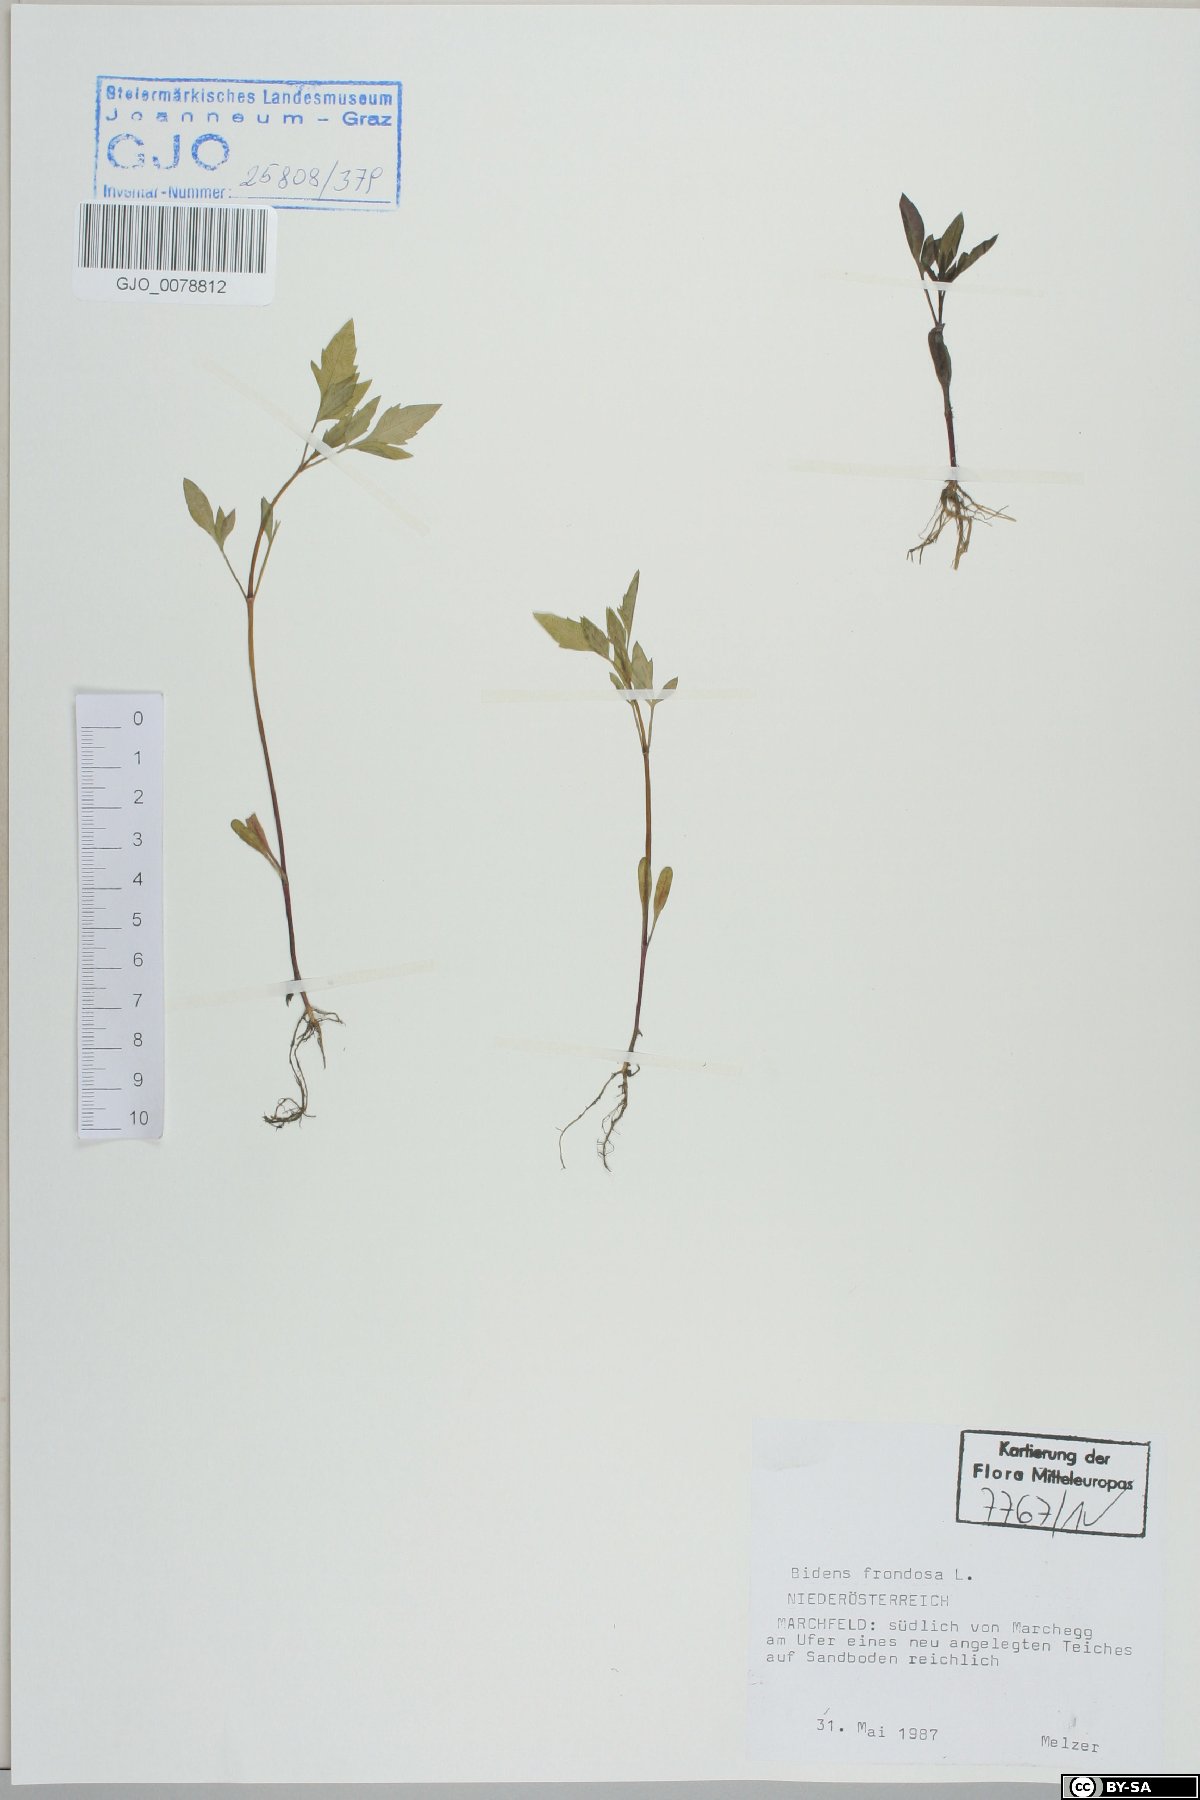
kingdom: Plantae
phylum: Tracheophyta
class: Magnoliopsida
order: Asterales
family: Asteraceae
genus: Bidens
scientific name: Bidens frondosa
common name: Beggarticks
